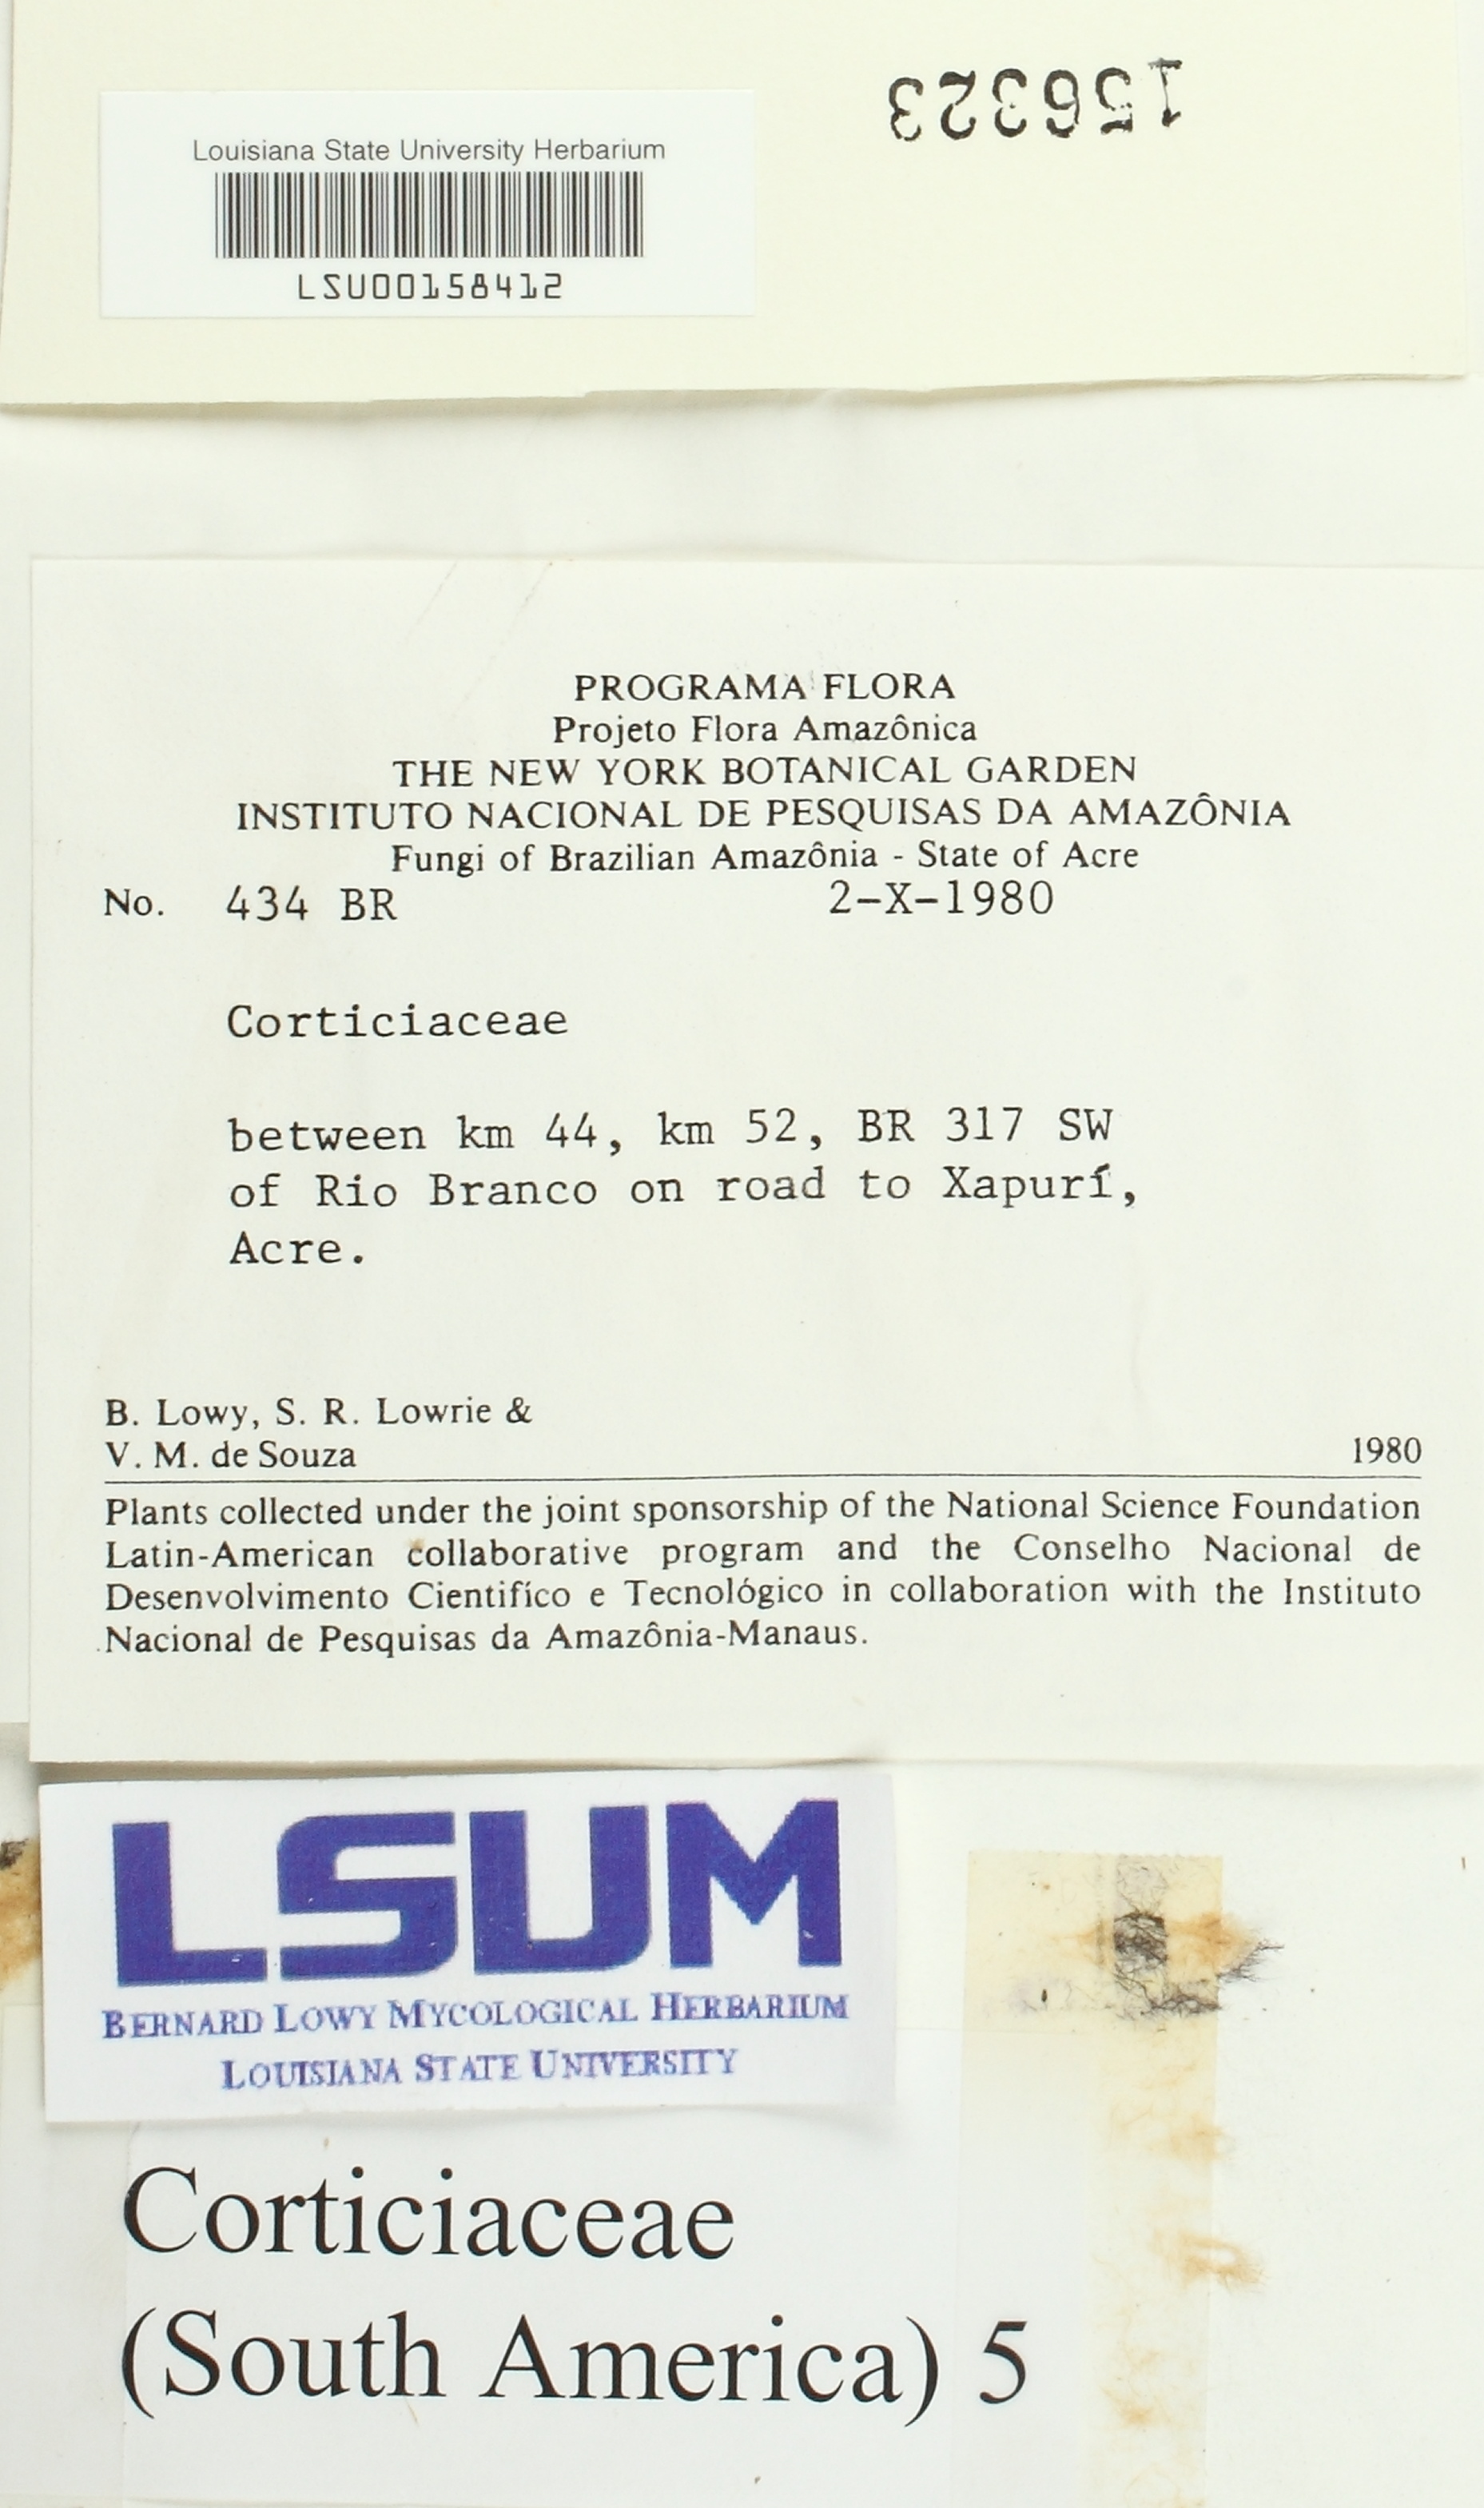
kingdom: Fungi
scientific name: Fungi
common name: Fungi
